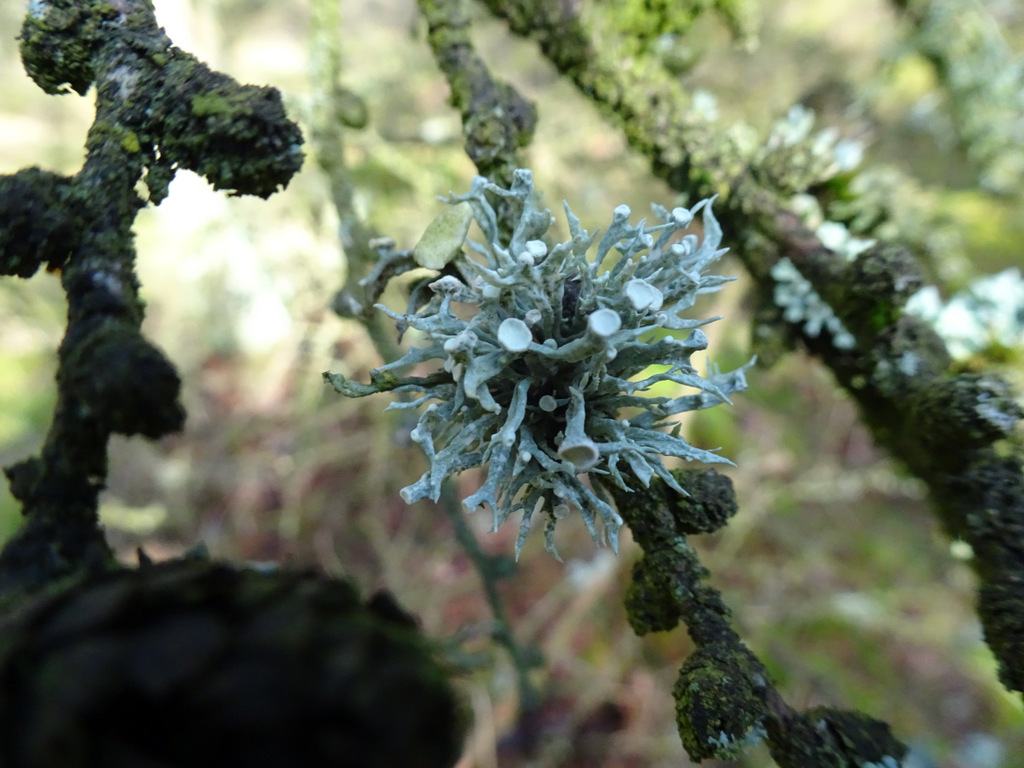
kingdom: Fungi
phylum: Ascomycota
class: Lecanoromycetes
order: Lecanorales
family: Ramalinaceae
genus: Ramalina
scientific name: Ramalina fastigiata
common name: tue-grenlav
